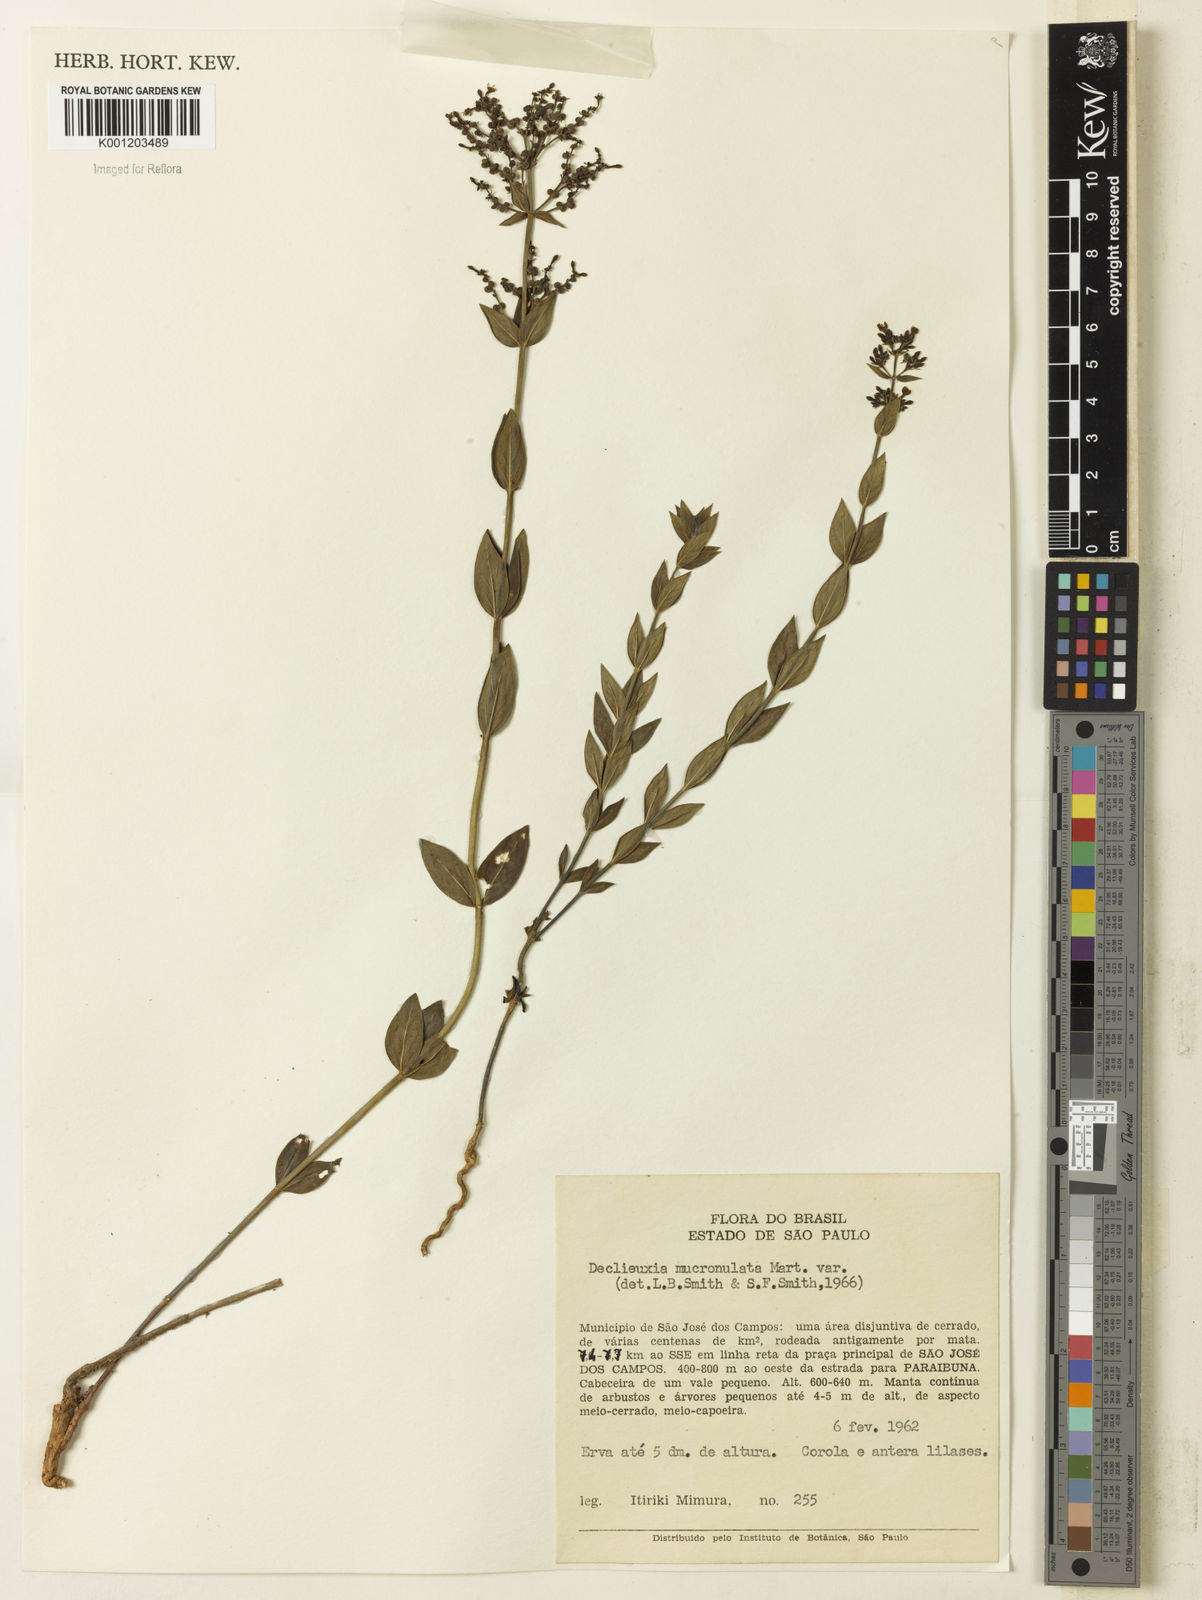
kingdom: Plantae
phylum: Tracheophyta
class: Magnoliopsida
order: Gentianales
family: Rubiaceae
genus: Declieuxia
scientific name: Declieuxia fruticosa
